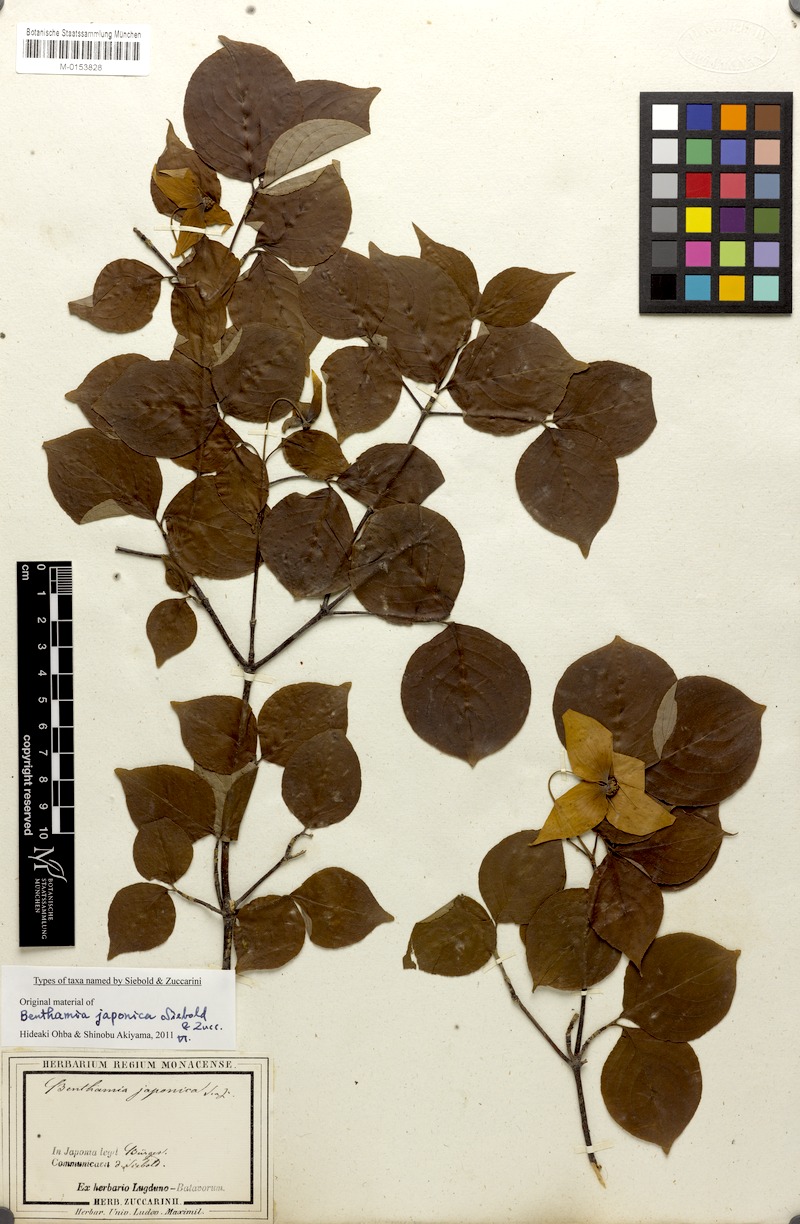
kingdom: Plantae
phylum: Tracheophyta
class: Magnoliopsida
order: Cornales
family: Cornaceae
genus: Cornus
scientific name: Cornus kousa
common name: Japanese dogwood
